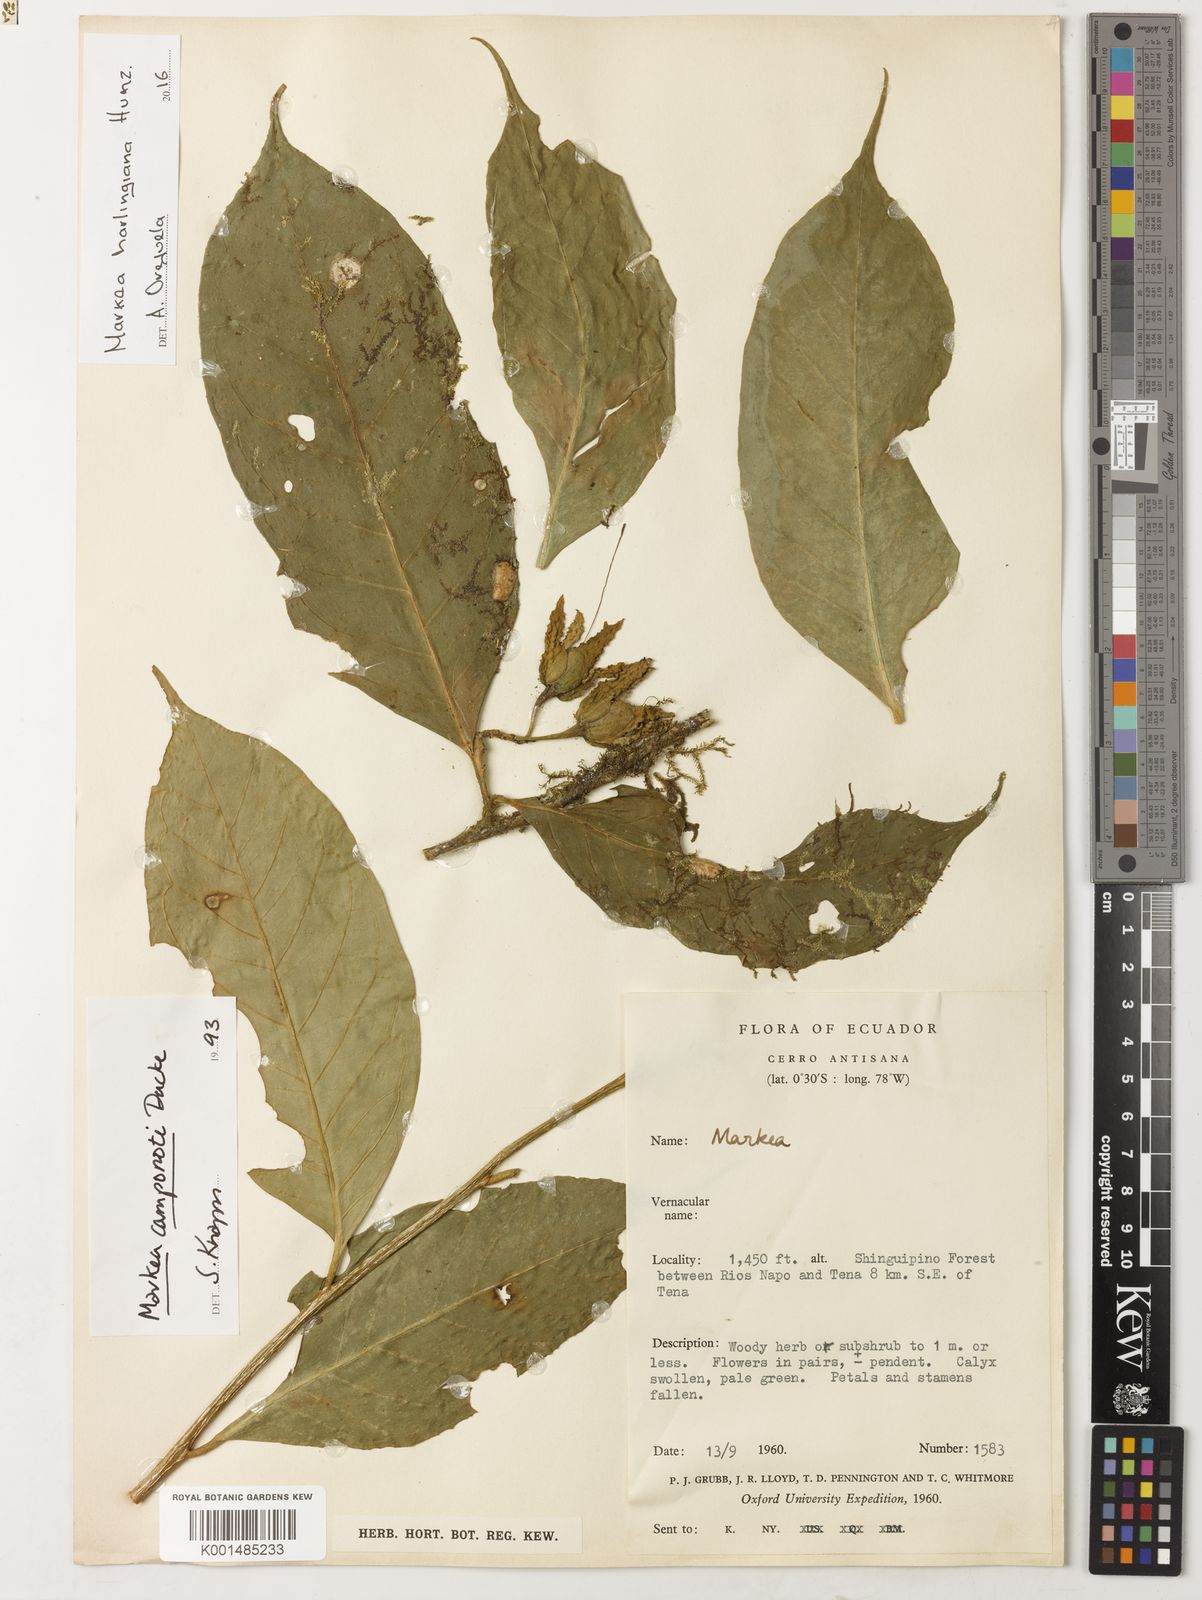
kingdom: Plantae
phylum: Tracheophyta
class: Magnoliopsida
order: Solanales
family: Solanaceae
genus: Markea
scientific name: Markea harlingiana
